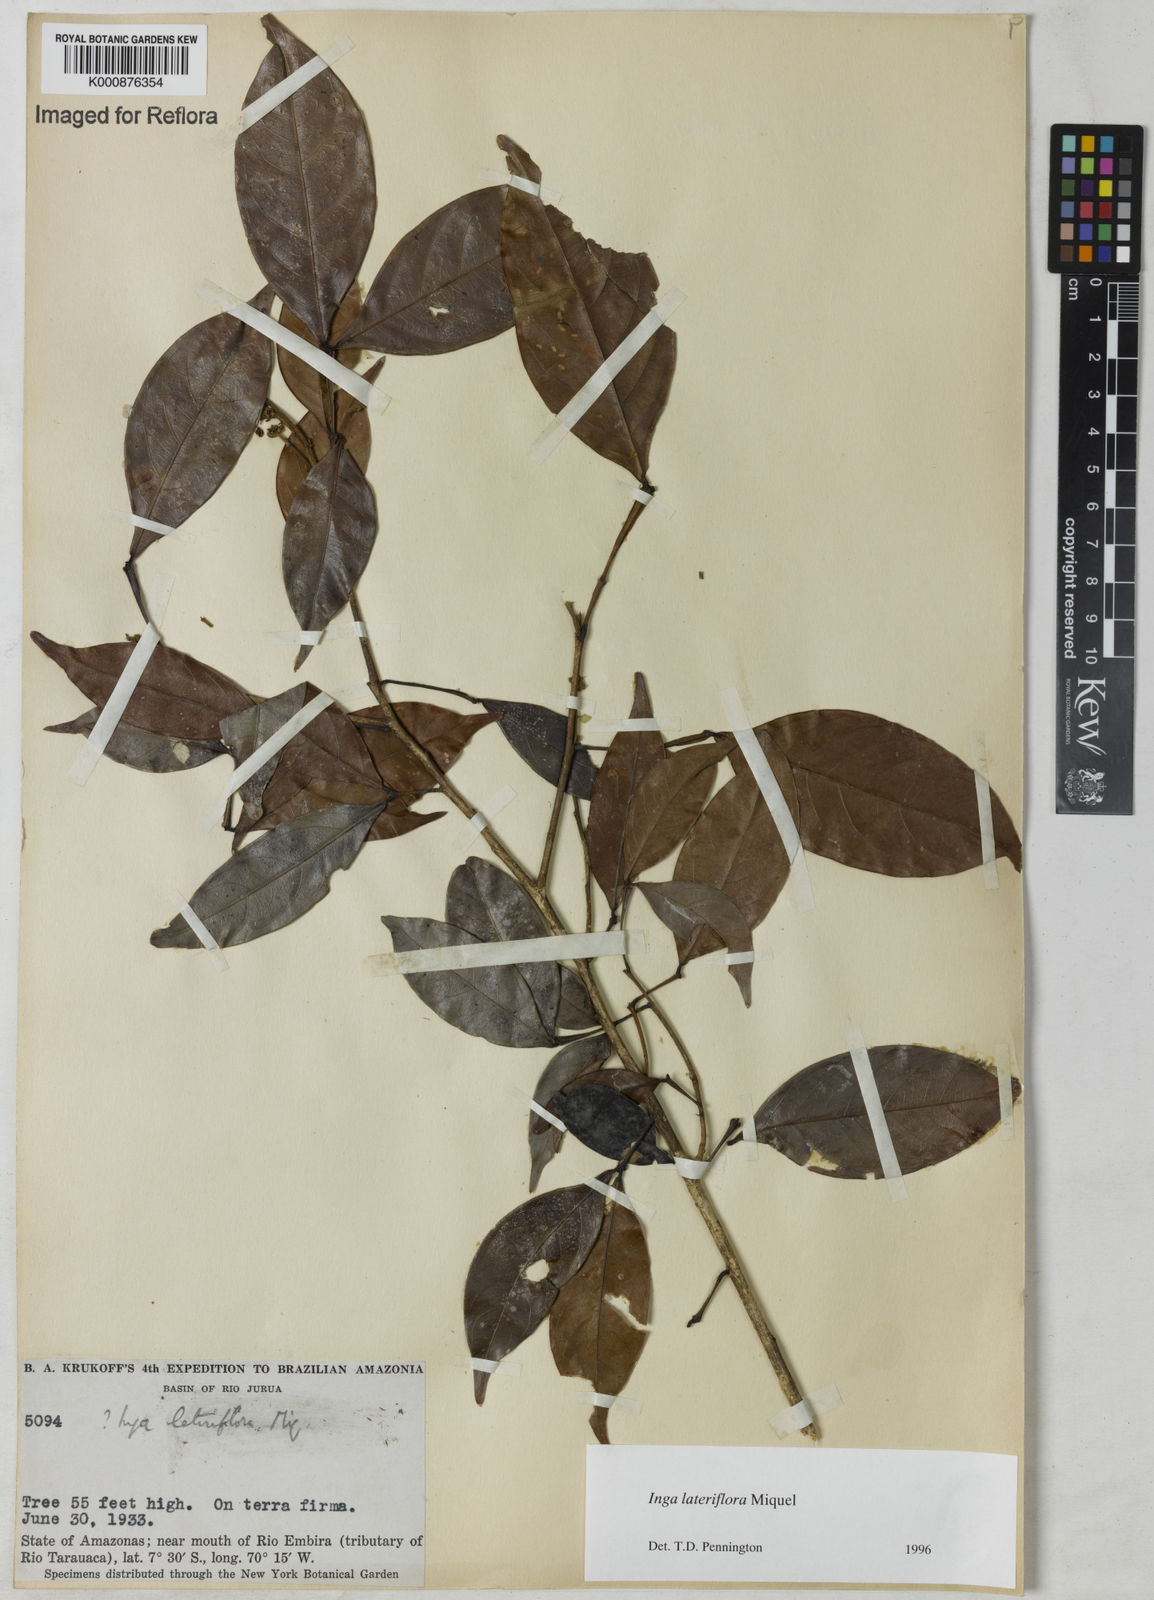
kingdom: Plantae
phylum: Tracheophyta
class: Magnoliopsida
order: Fabales
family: Fabaceae
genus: Inga
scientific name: Inga lateriflora
